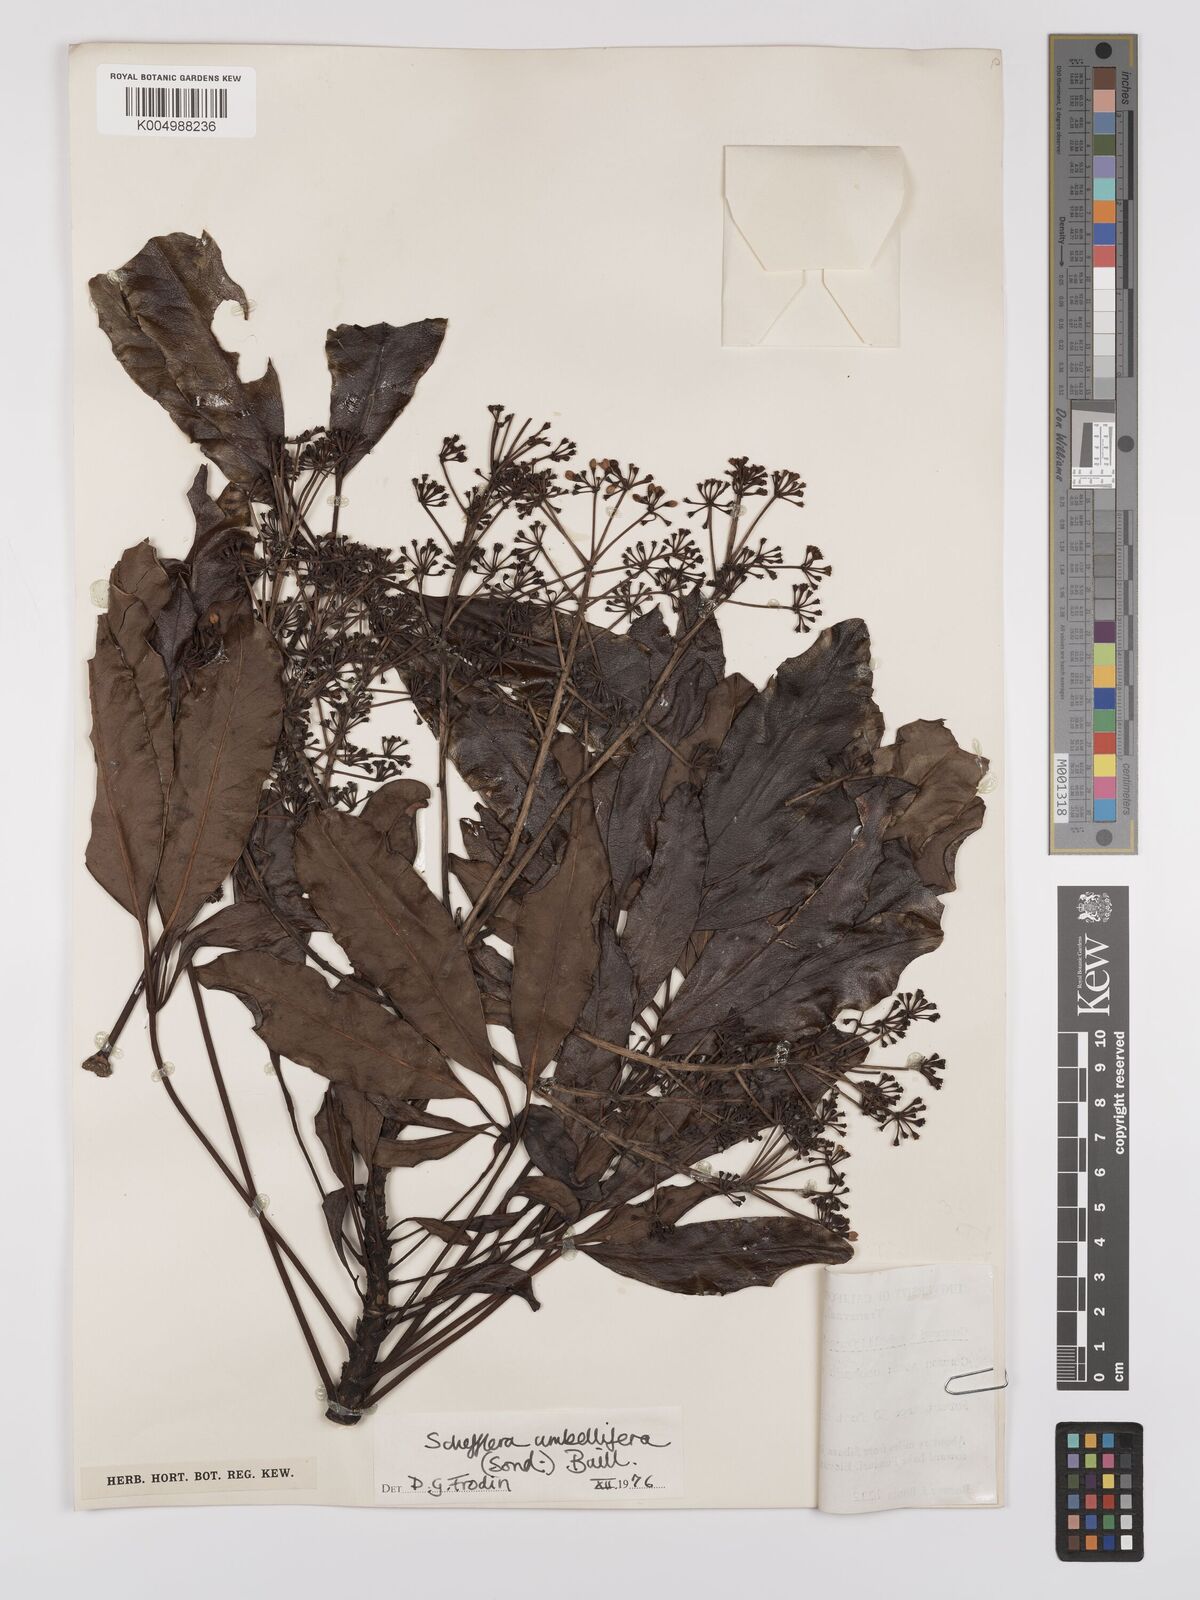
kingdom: Plantae
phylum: Tracheophyta
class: Magnoliopsida
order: Apiales
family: Araliaceae
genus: Neocussonia
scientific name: Neocussonia umbellifera
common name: False cabbage tree
